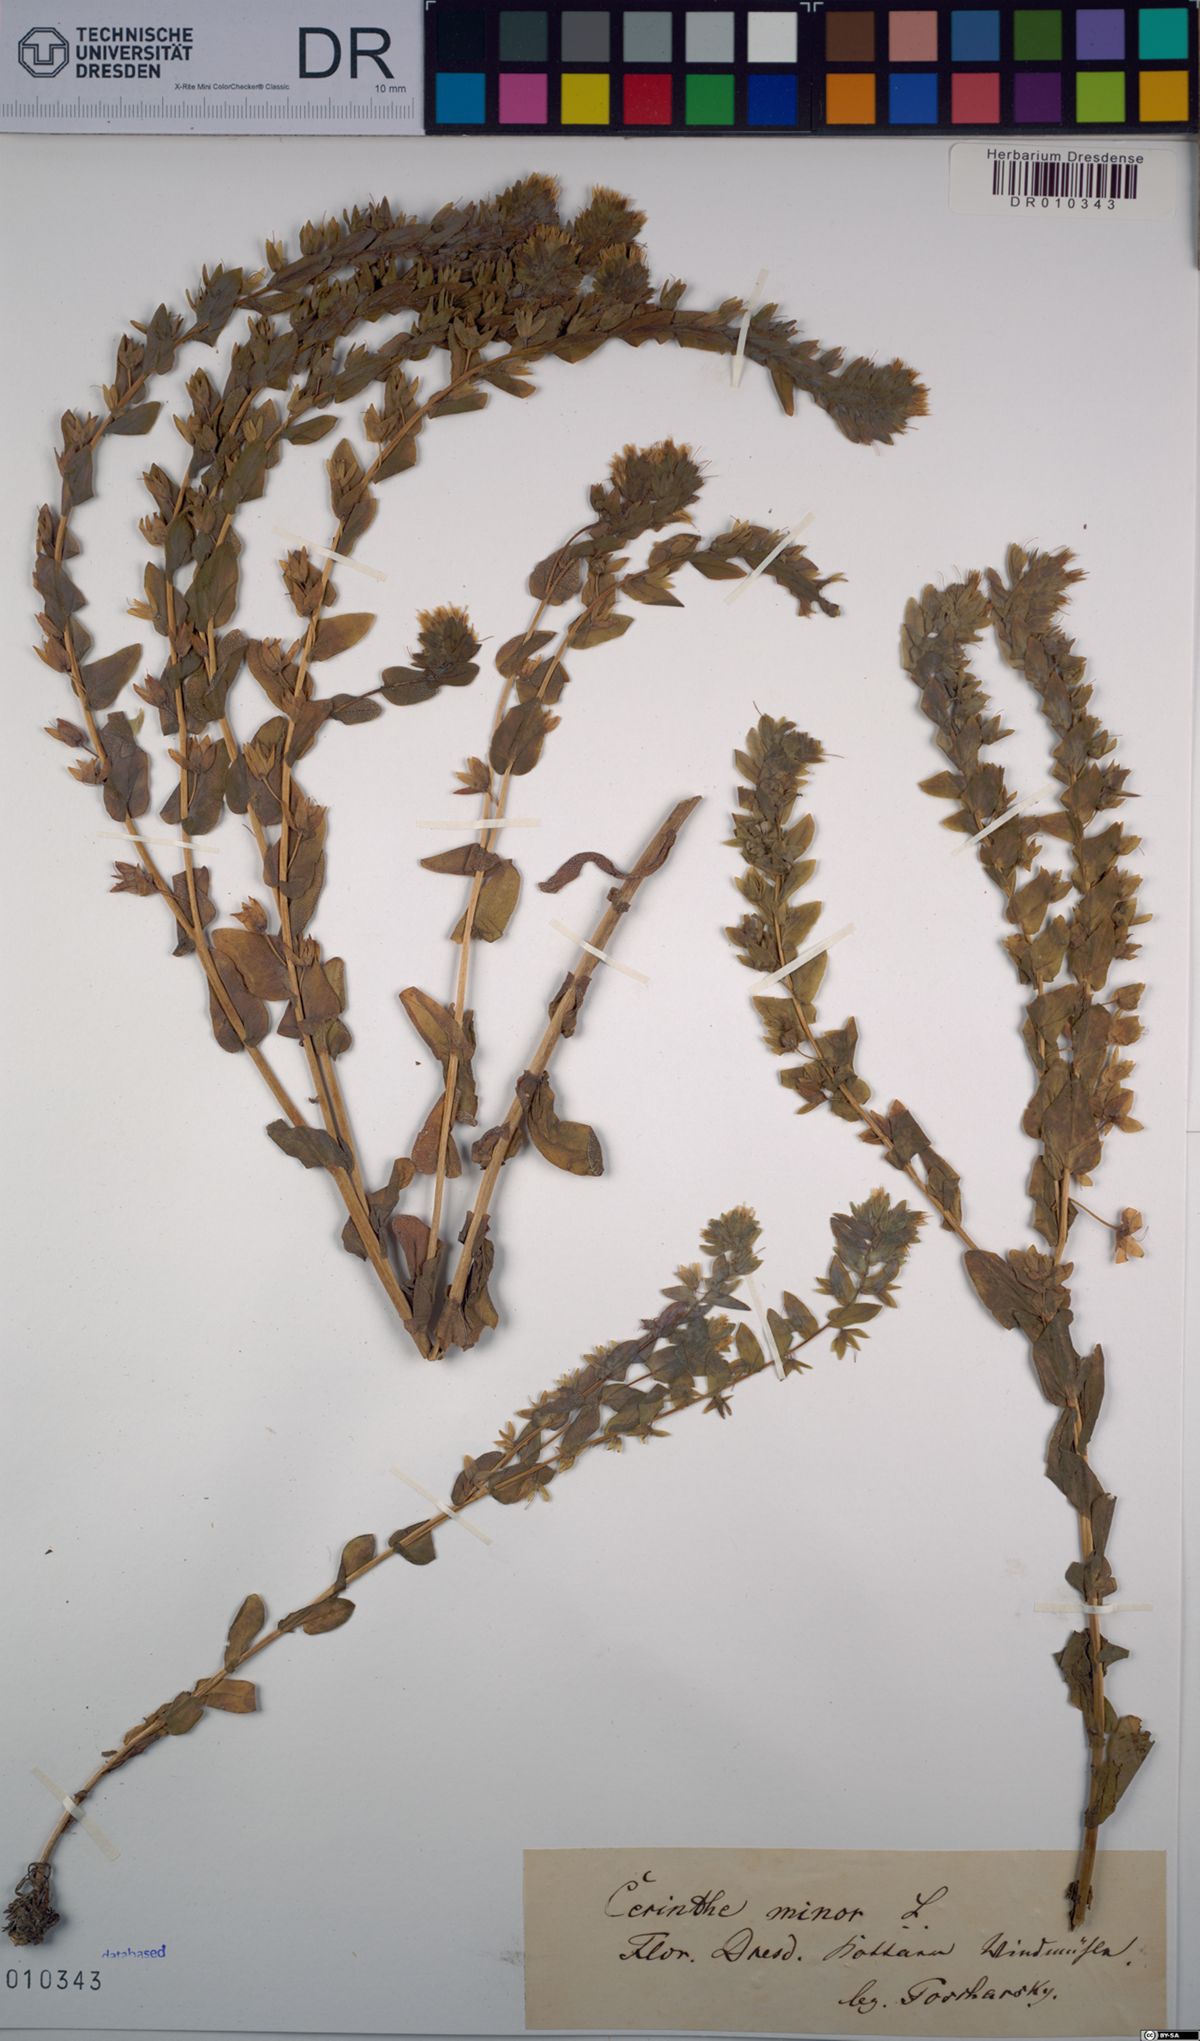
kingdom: Plantae
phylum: Tracheophyta
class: Magnoliopsida
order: Boraginales
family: Boraginaceae
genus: Cerinthe
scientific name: Cerinthe minor
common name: Lesser honeywort
